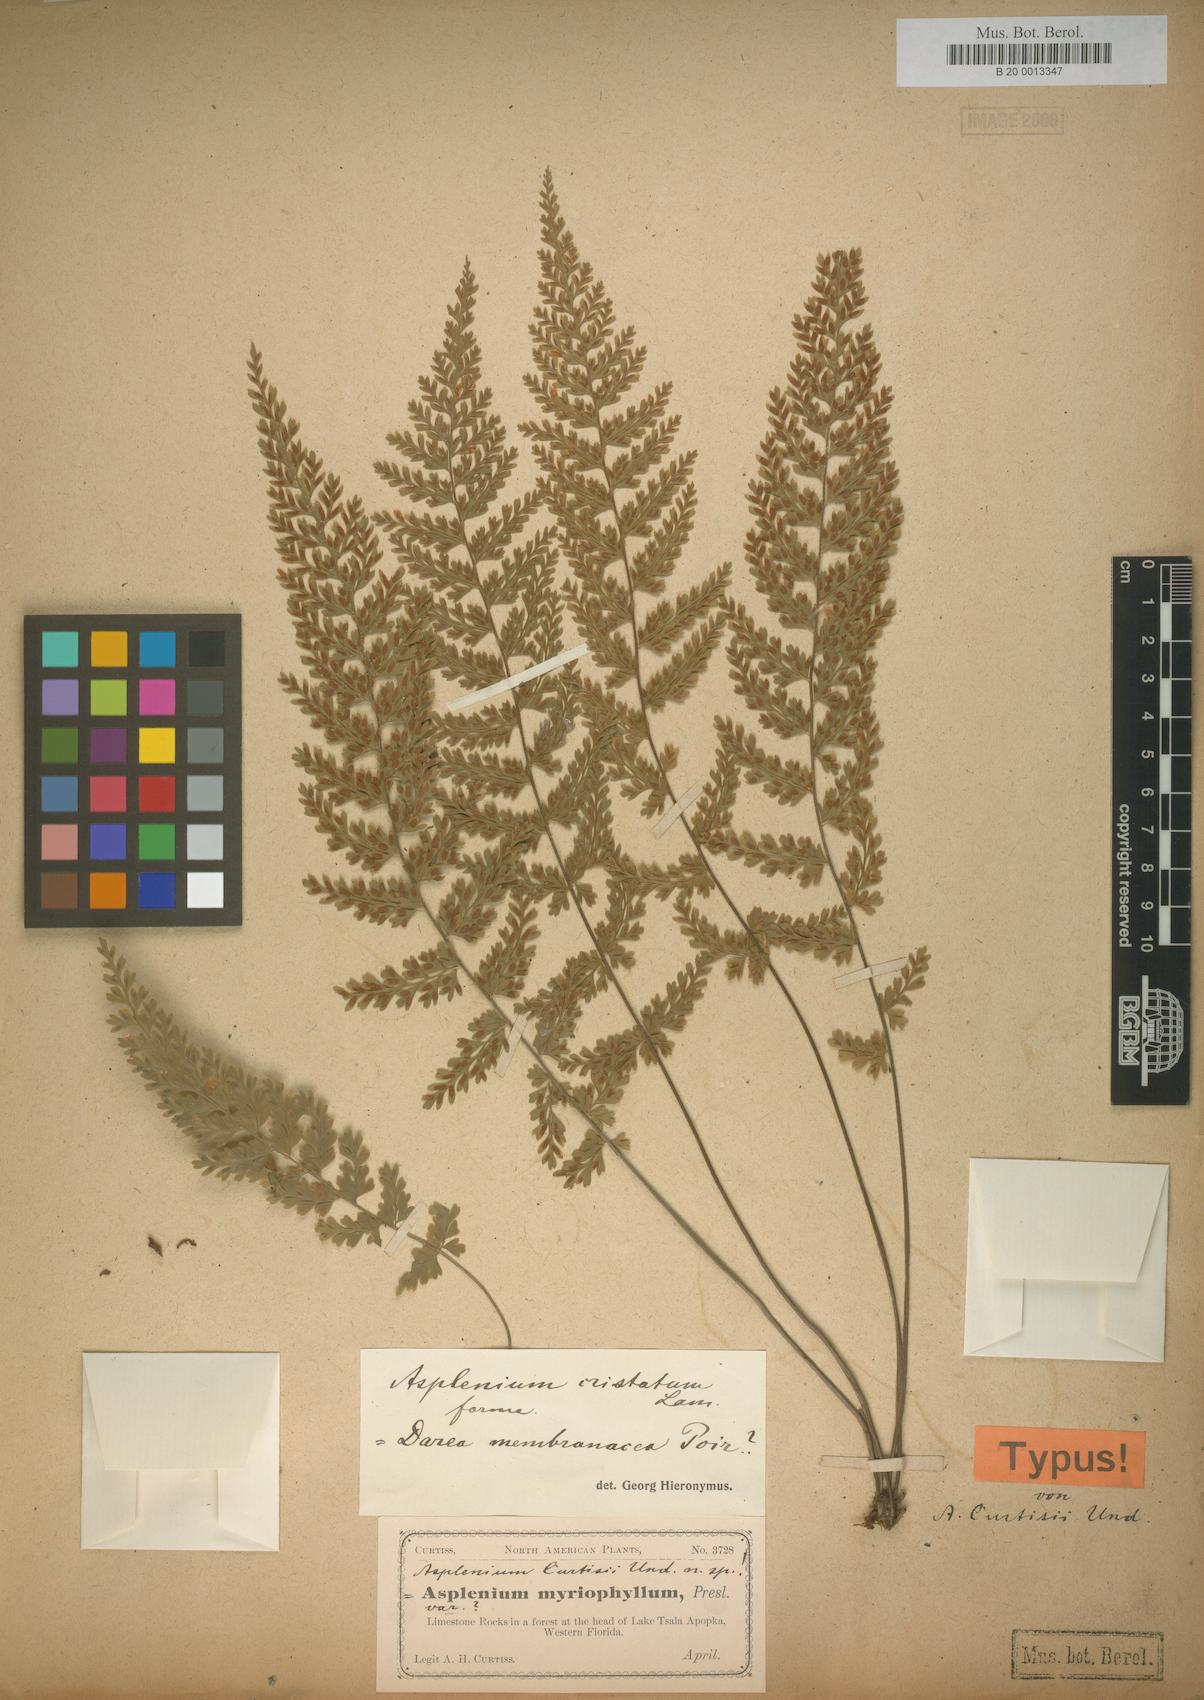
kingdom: Plantae
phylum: Tracheophyta
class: Polypodiopsida
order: Polypodiales
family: Aspleniaceae
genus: Asplenium
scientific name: Asplenium curtissii
